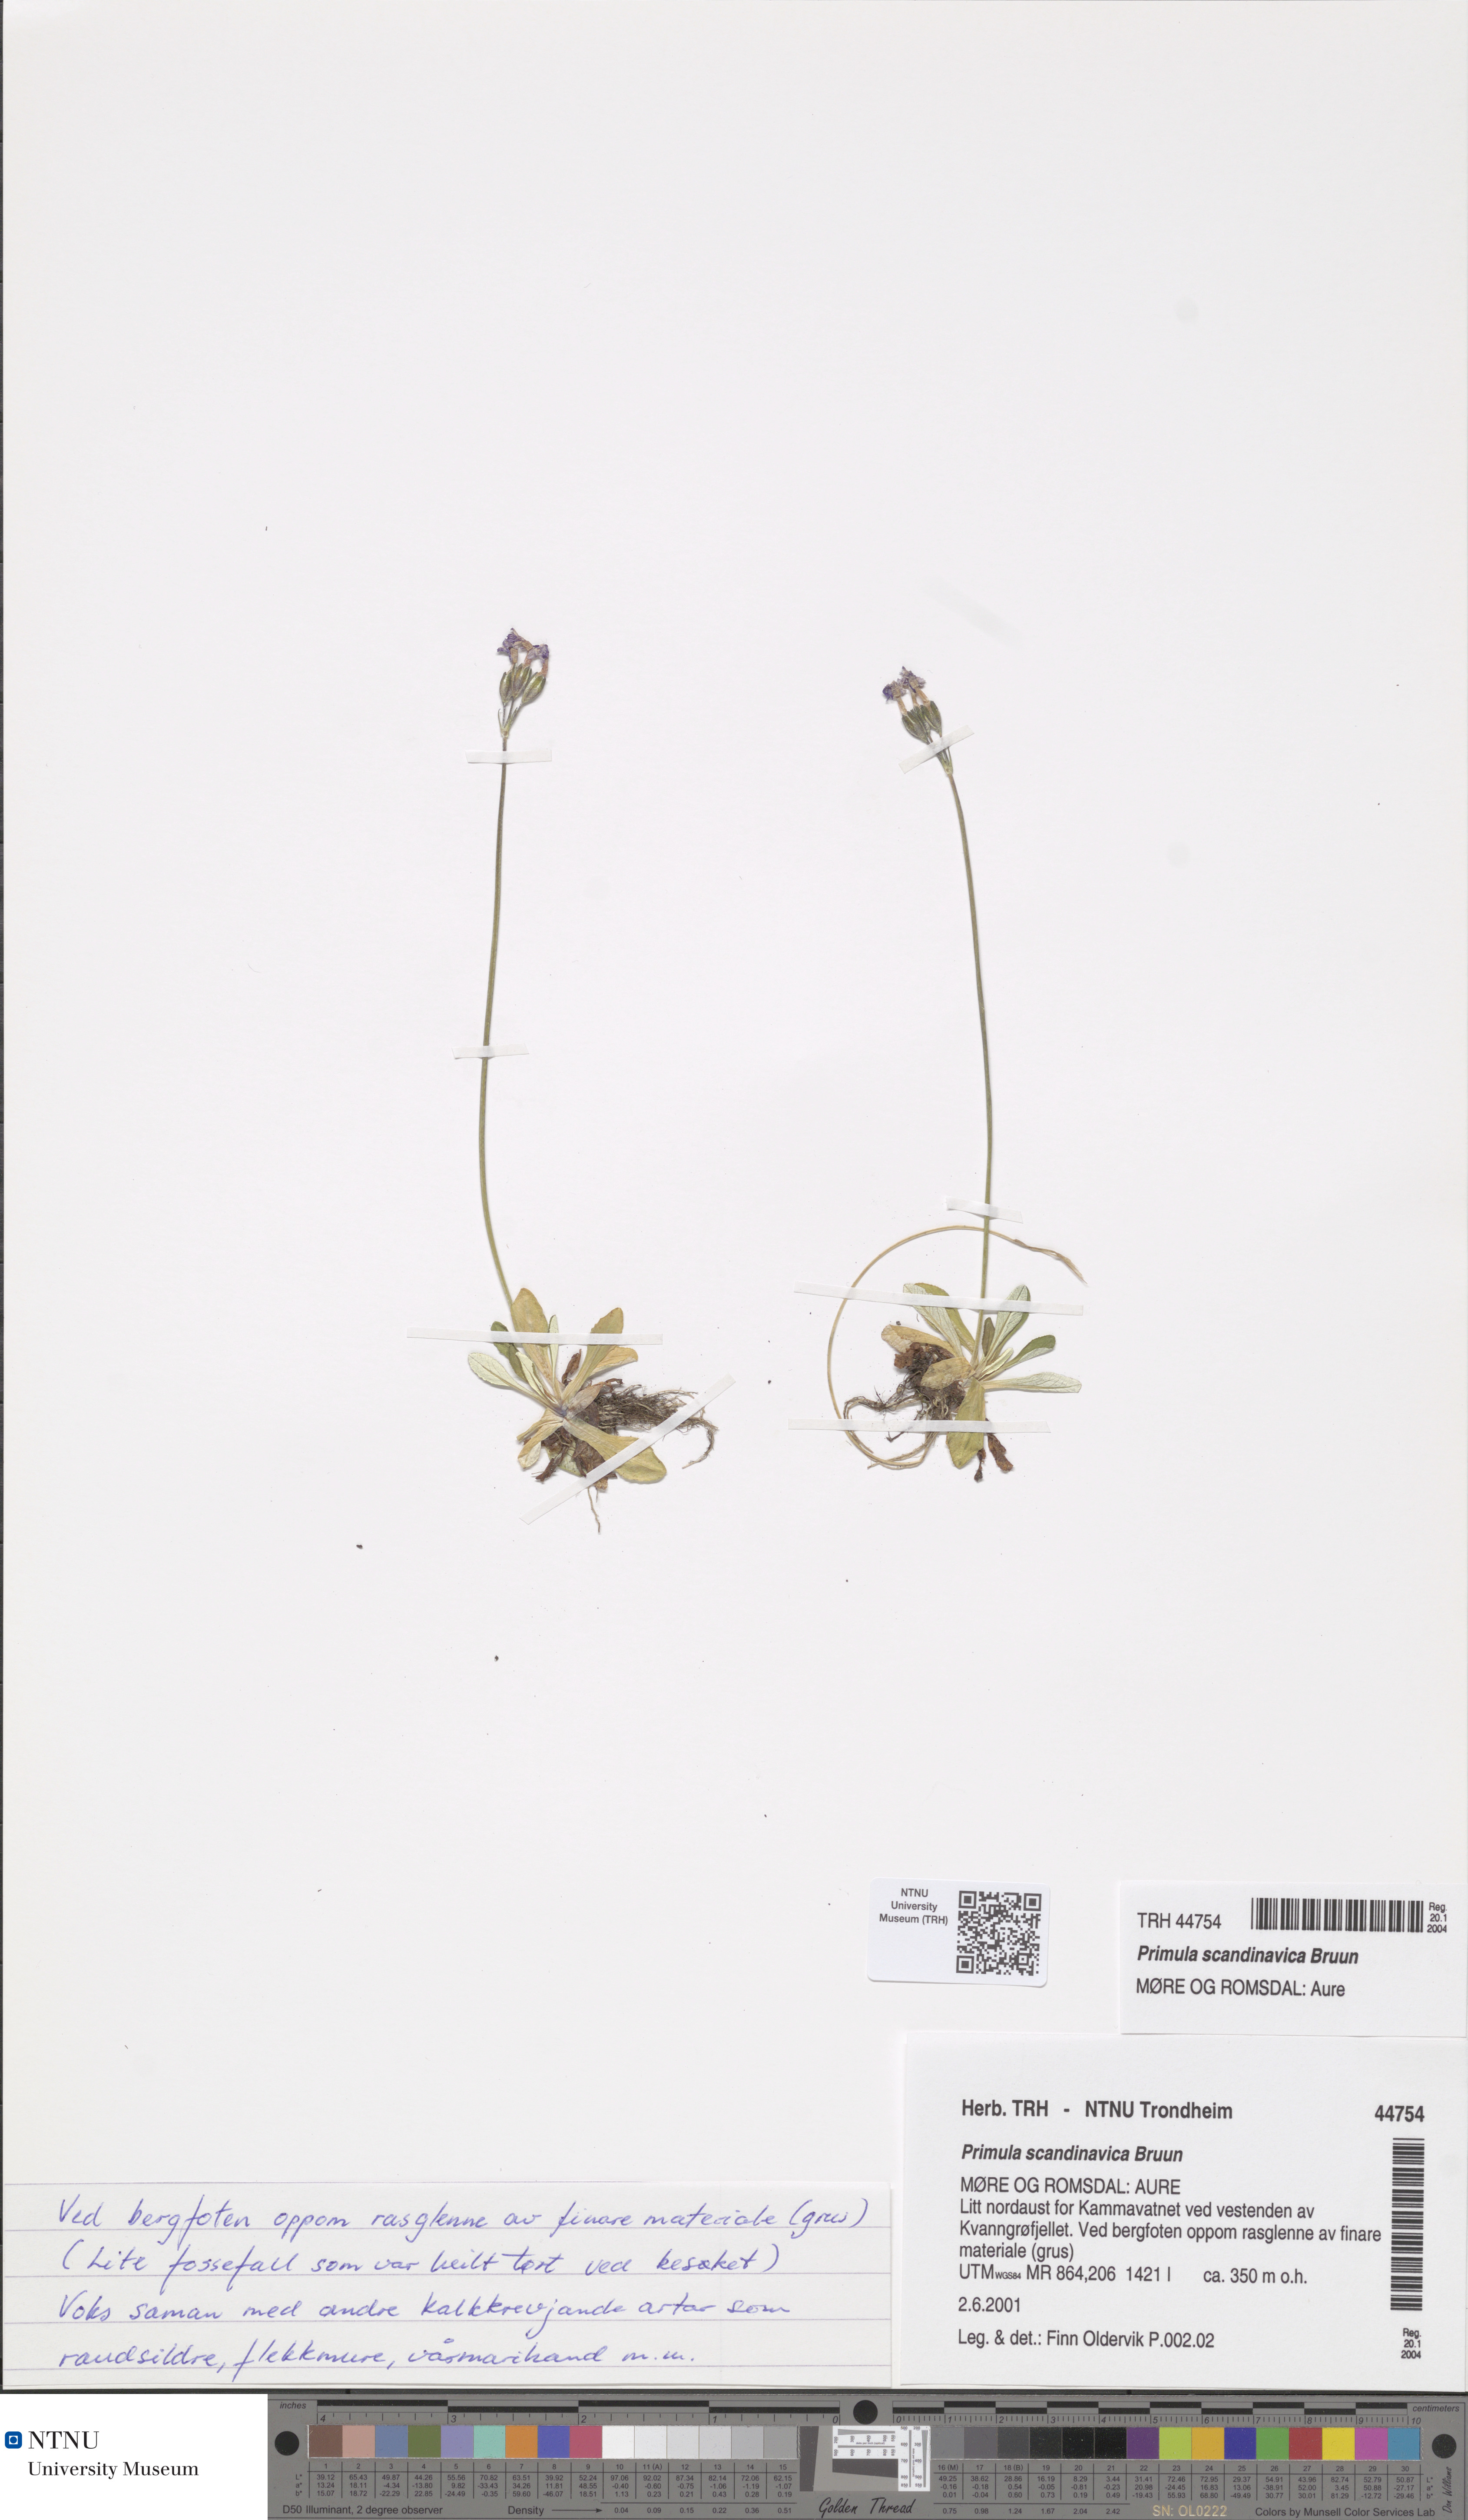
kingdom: Plantae
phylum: Tracheophyta
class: Magnoliopsida
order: Ericales
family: Primulaceae
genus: Primula
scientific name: Primula scandinavica
